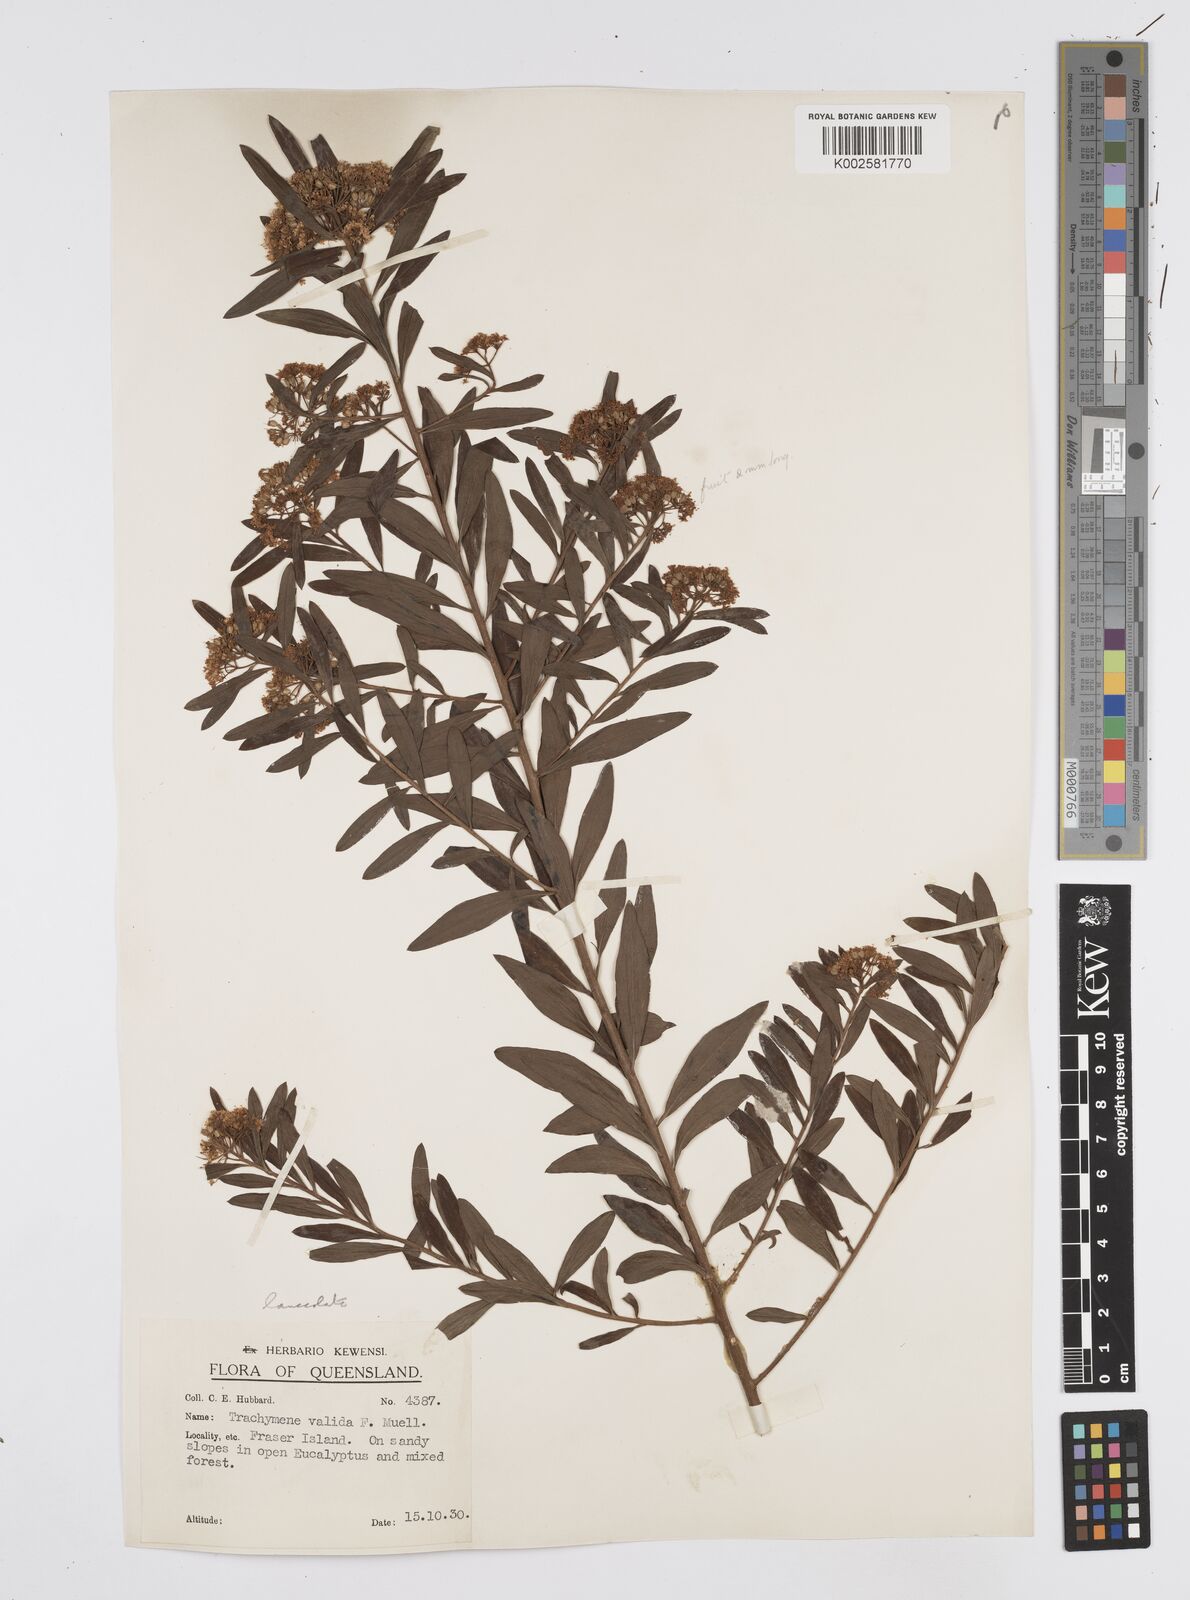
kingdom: Plantae
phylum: Tracheophyta
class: Magnoliopsida
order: Apiales
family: Apiaceae
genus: Platysace
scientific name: Platysace lanceolata
